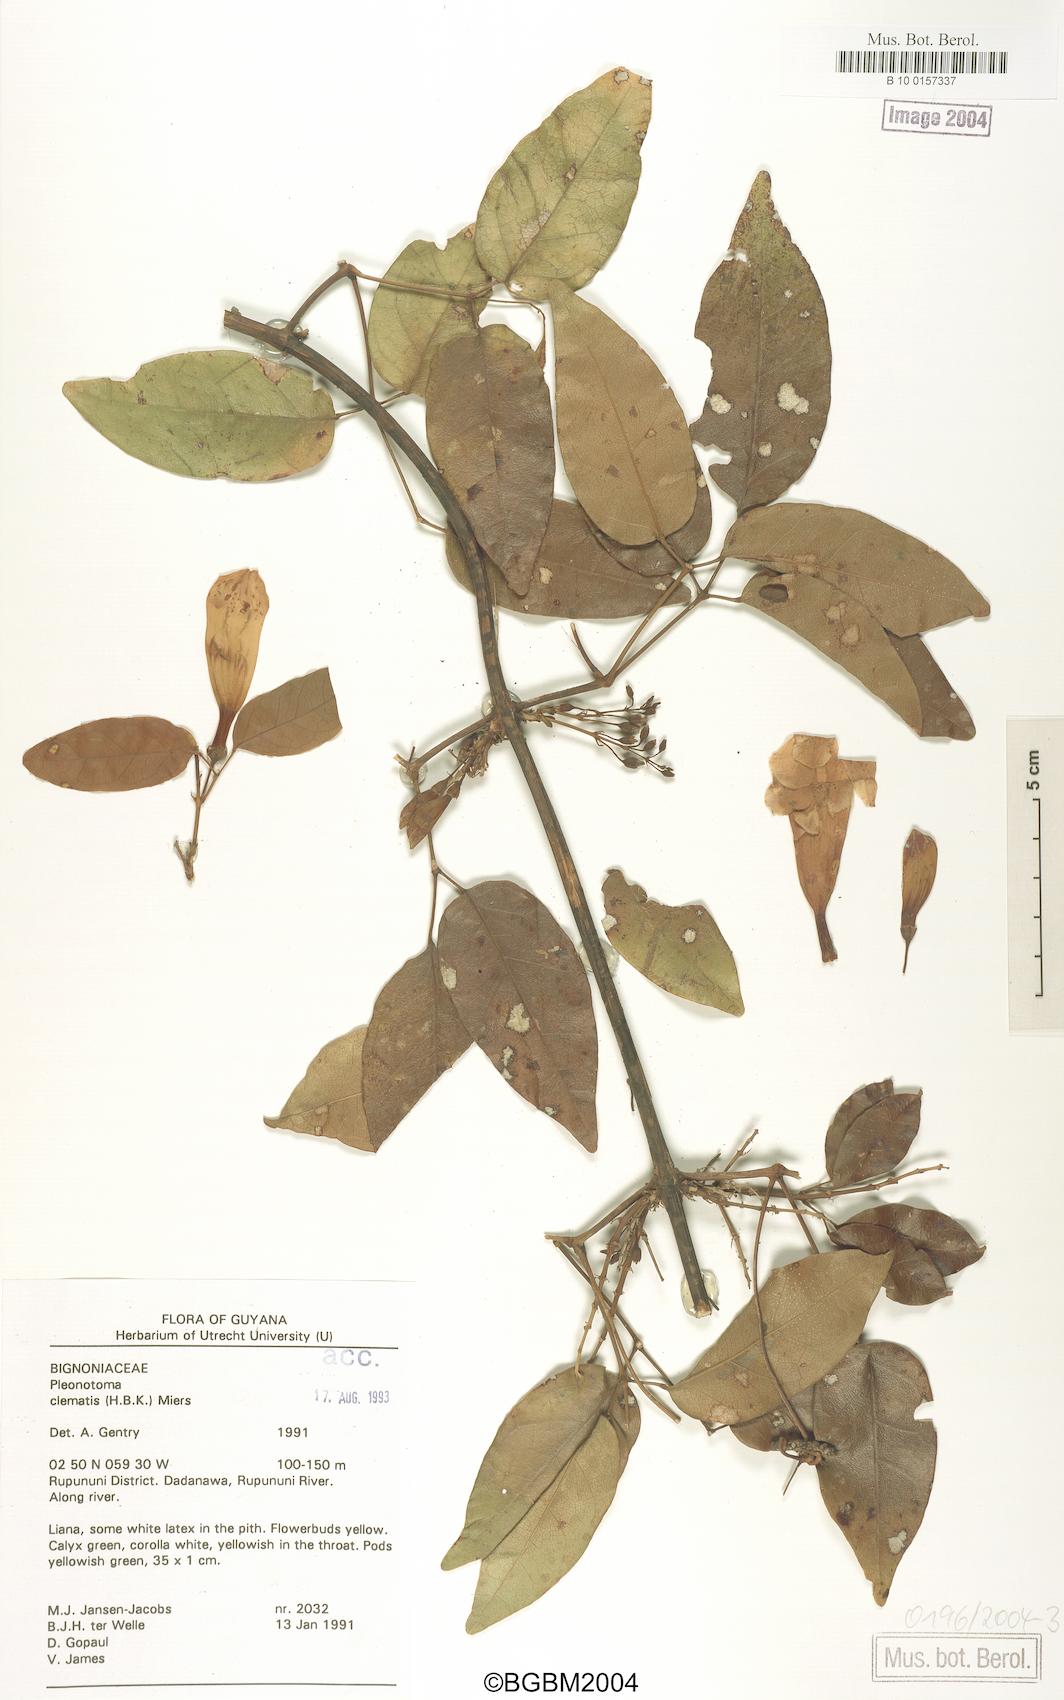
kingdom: Plantae
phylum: Tracheophyta
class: Magnoliopsida
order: Lamiales
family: Bignoniaceae
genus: Pleonotoma
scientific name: Pleonotoma clematis
